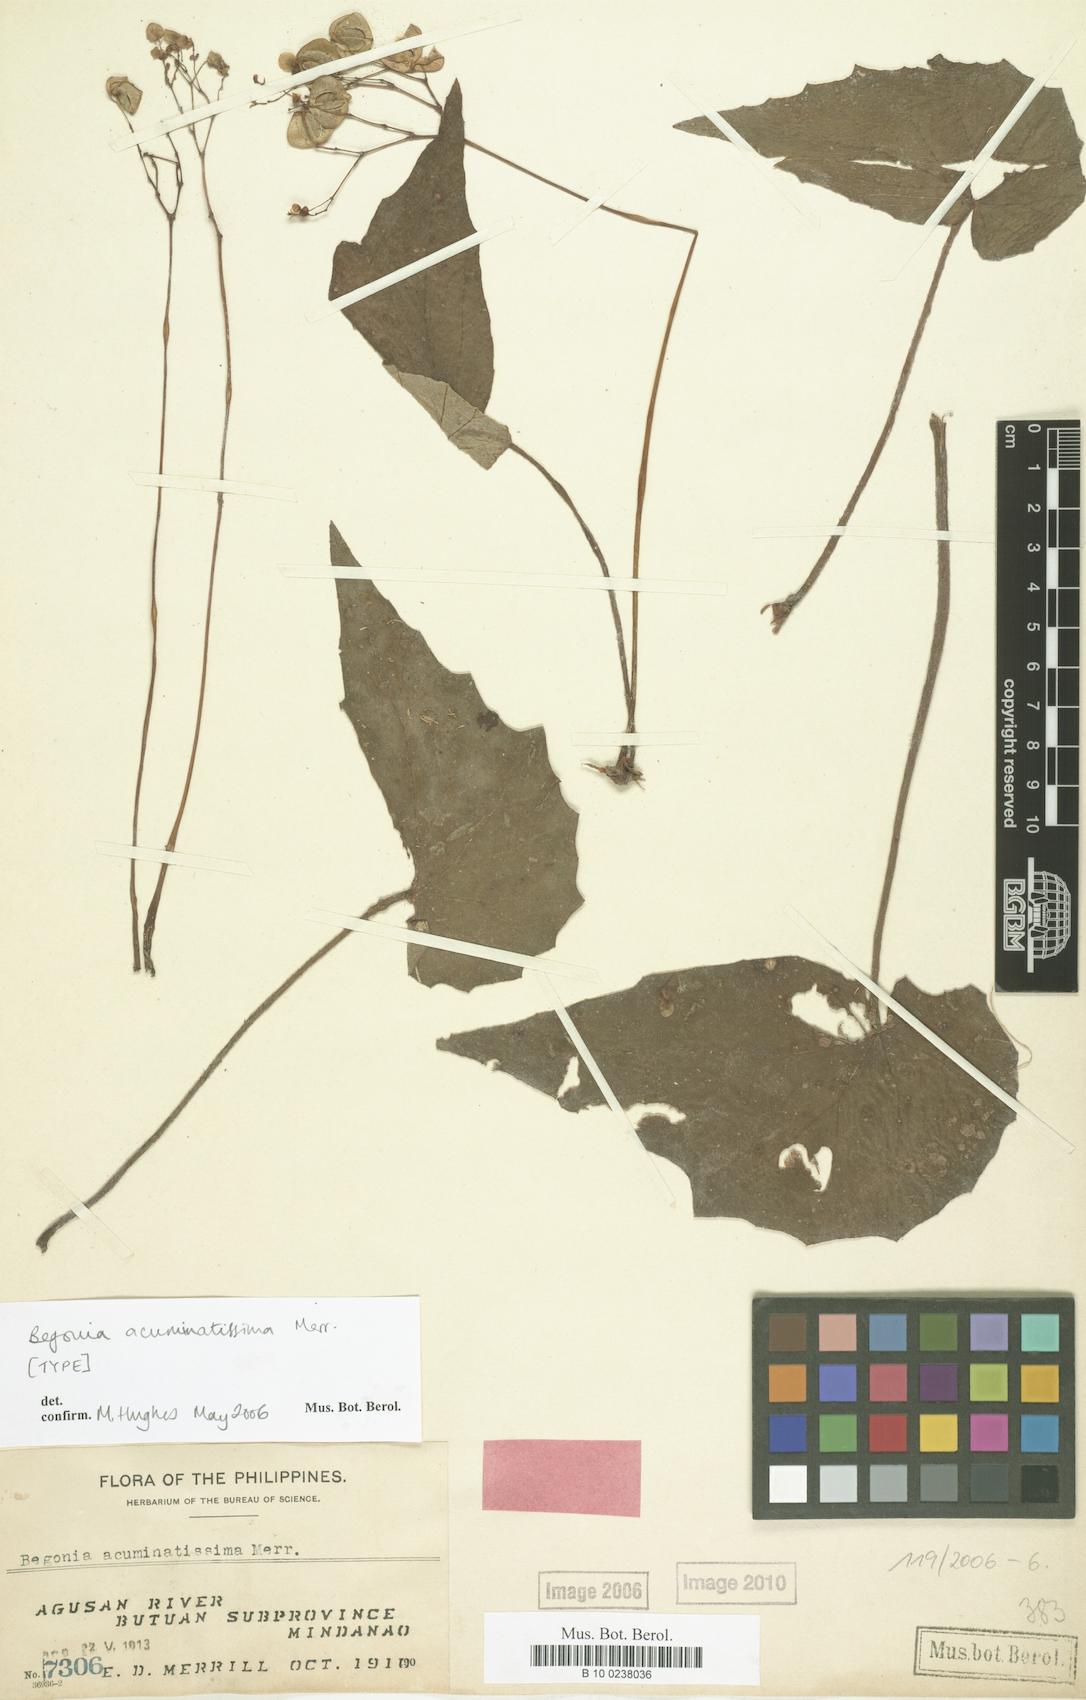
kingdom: Plantae
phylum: Tracheophyta
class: Magnoliopsida
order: Cucurbitales
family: Begoniaceae
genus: Begonia
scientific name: Begonia acuminatissima
